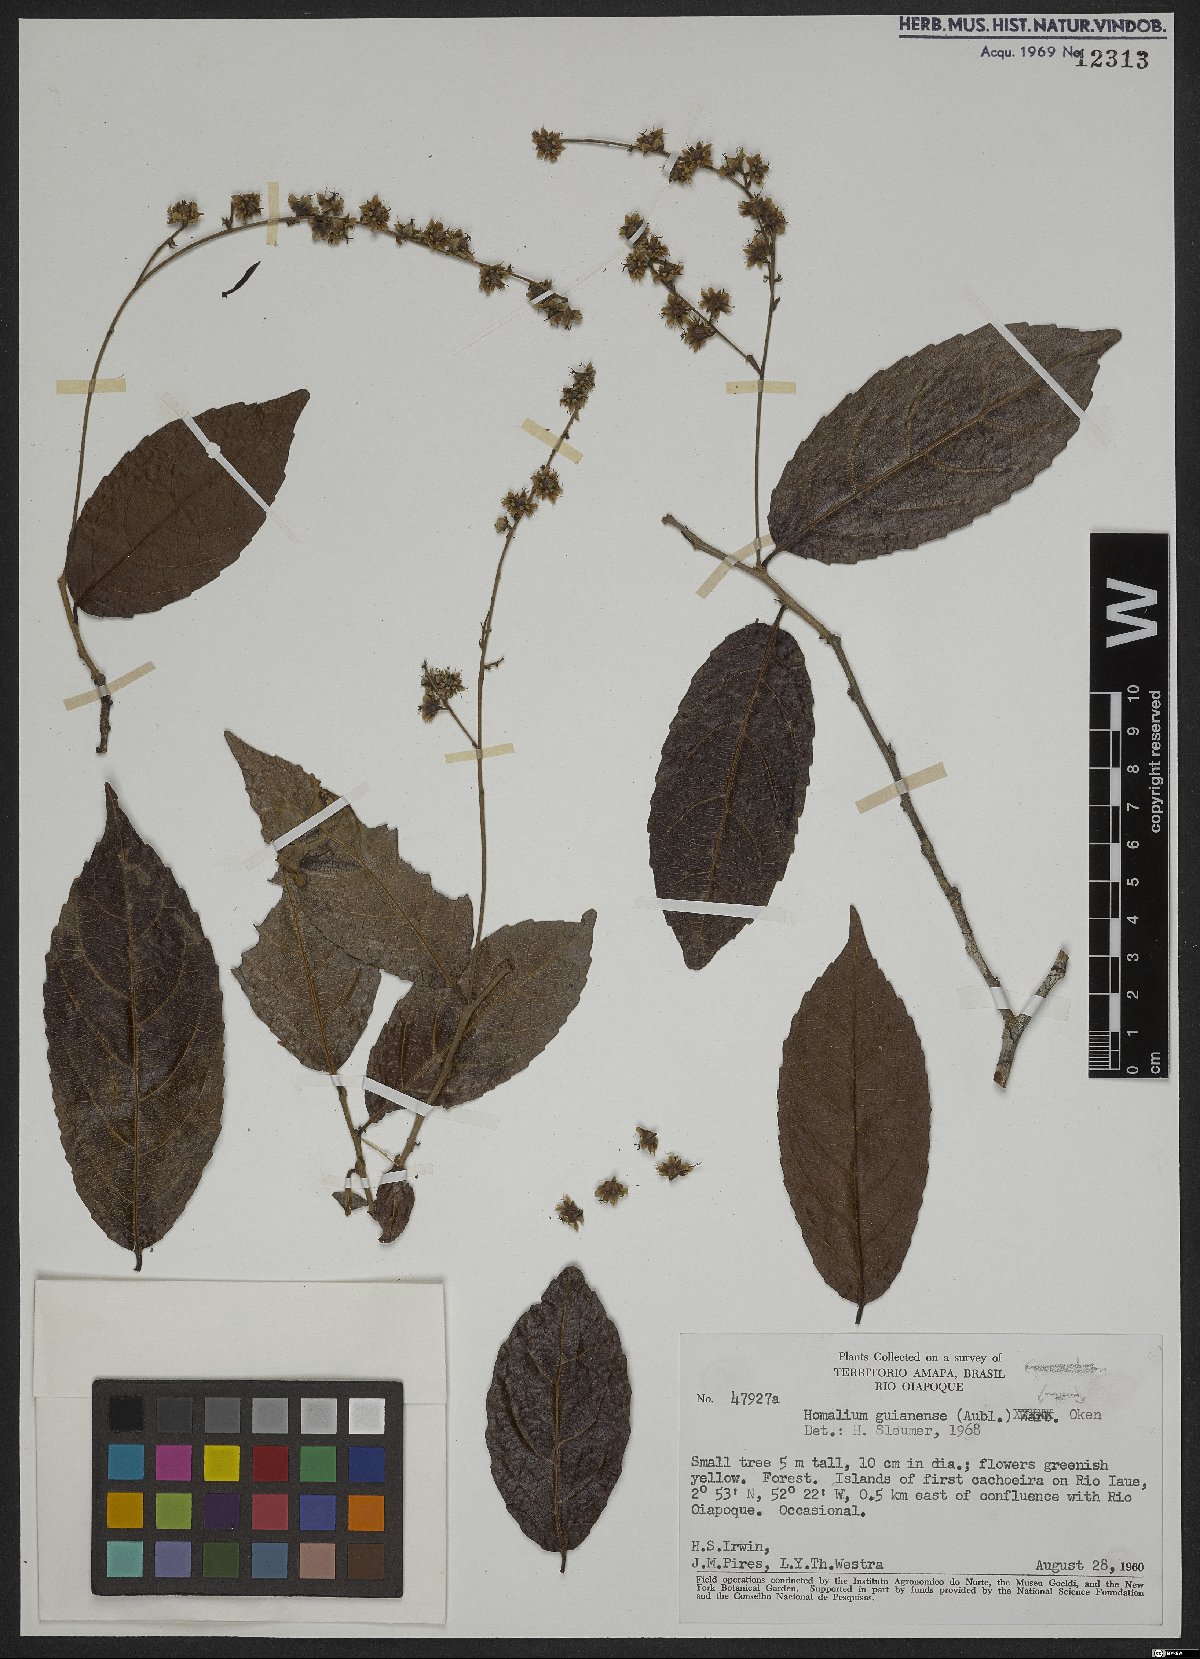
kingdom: Plantae
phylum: Tracheophyta
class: Magnoliopsida
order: Malpighiales
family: Salicaceae
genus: Homalium
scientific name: Homalium guianense
